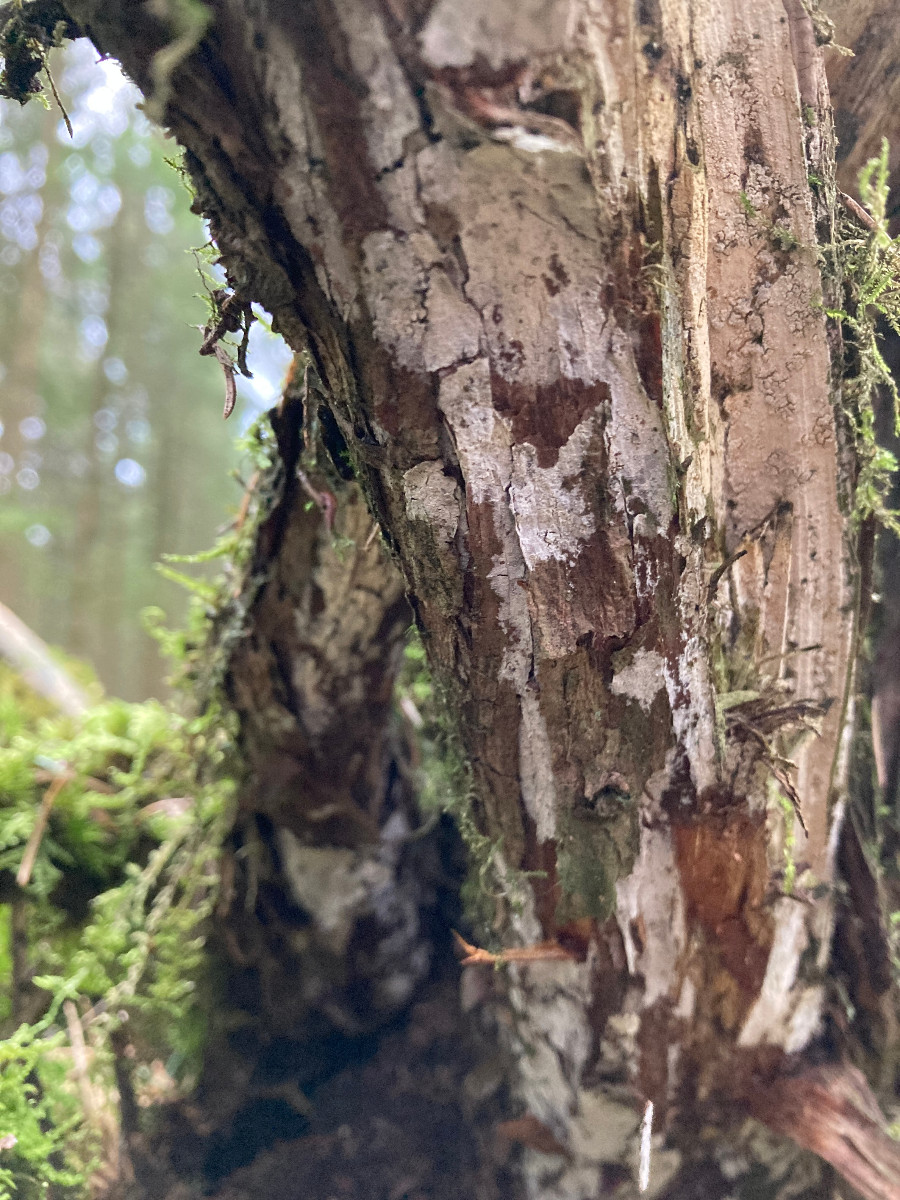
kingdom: Fungi
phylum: Basidiomycota
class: Agaricomycetes
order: Corticiales
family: Corticiaceae
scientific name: Corticiaceae
